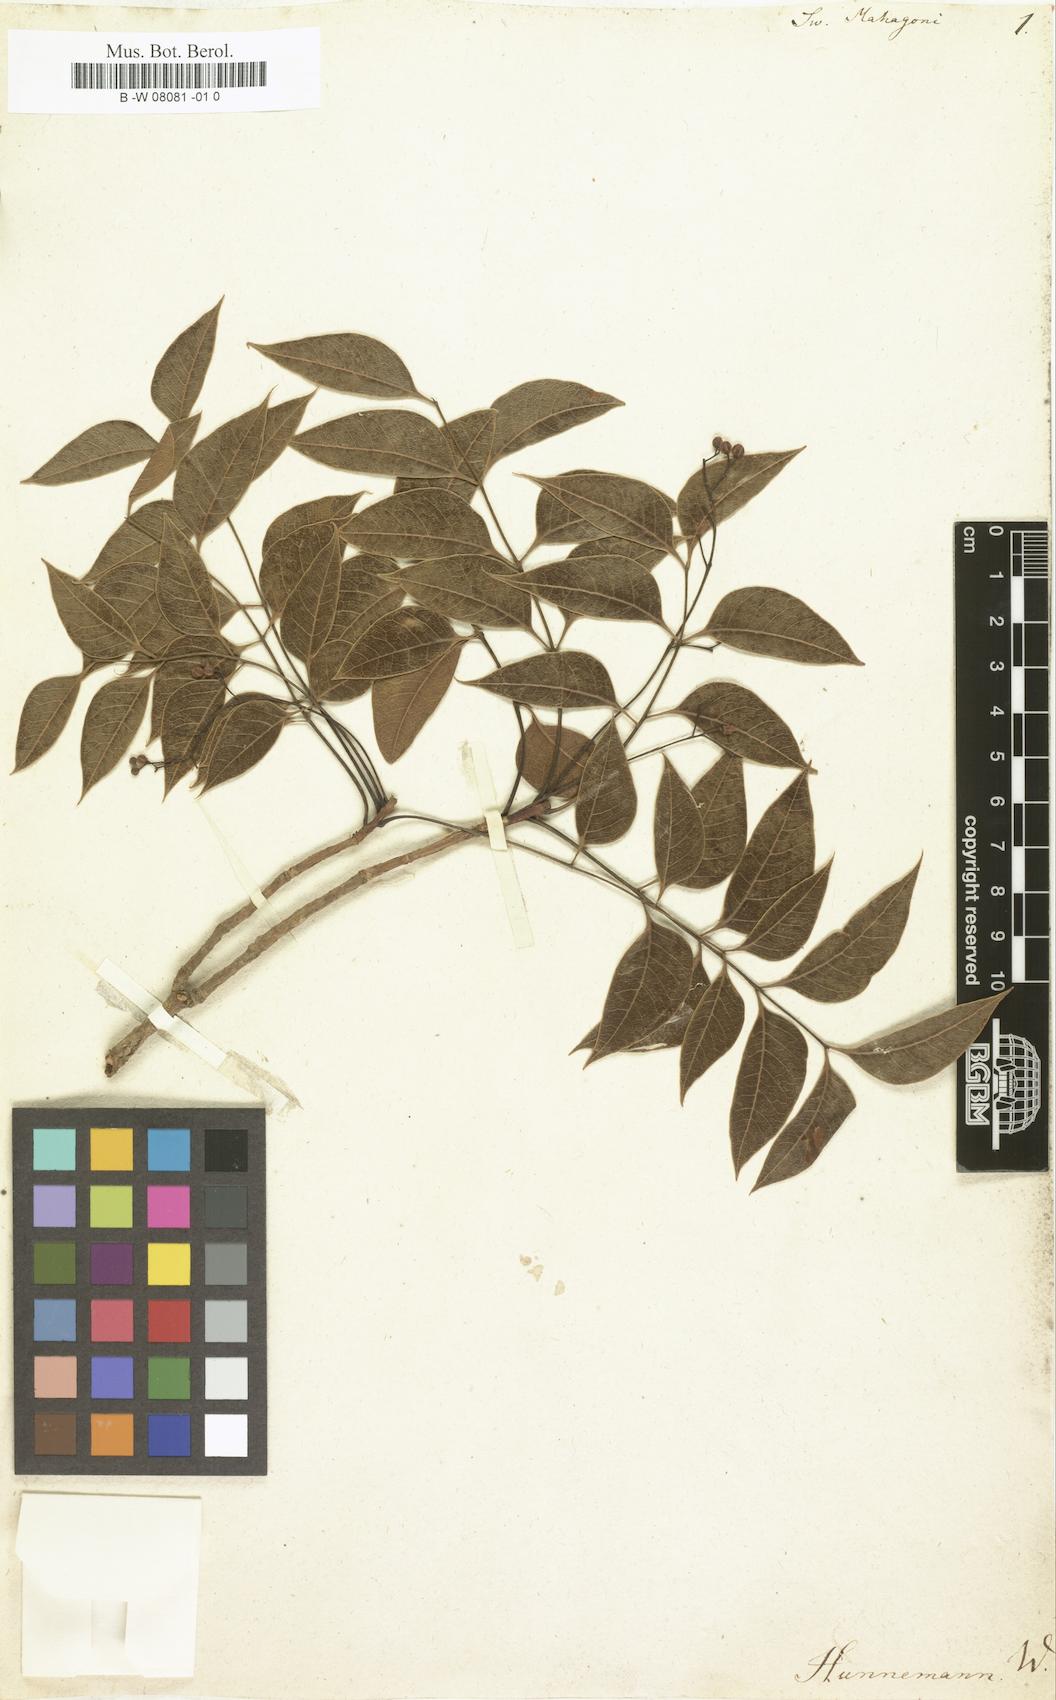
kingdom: Plantae
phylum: Tracheophyta
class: Magnoliopsida
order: Sapindales
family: Meliaceae
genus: Swietenia
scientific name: Swietenia mahagoni
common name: West indian mahogany
